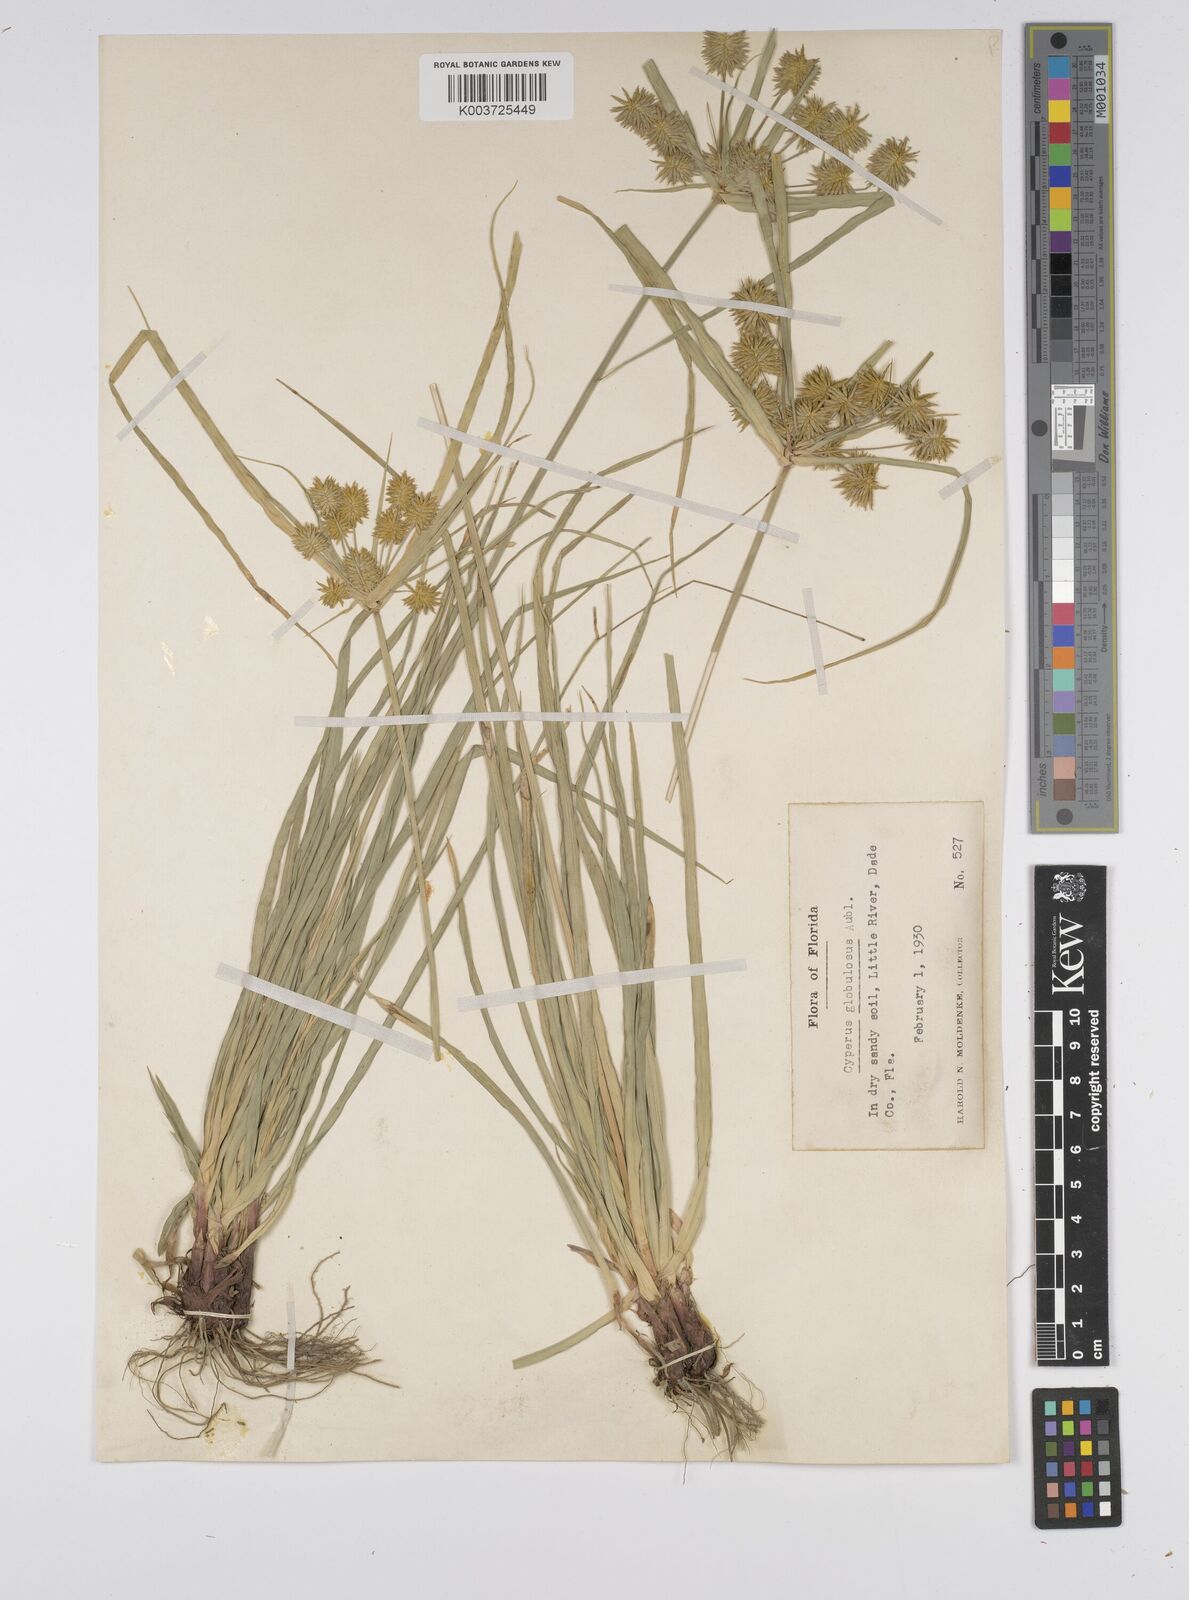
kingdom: Plantae
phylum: Tracheophyta
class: Liliopsida
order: Poales
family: Cyperaceae
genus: Cyperus
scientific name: Cyperus luzulae
